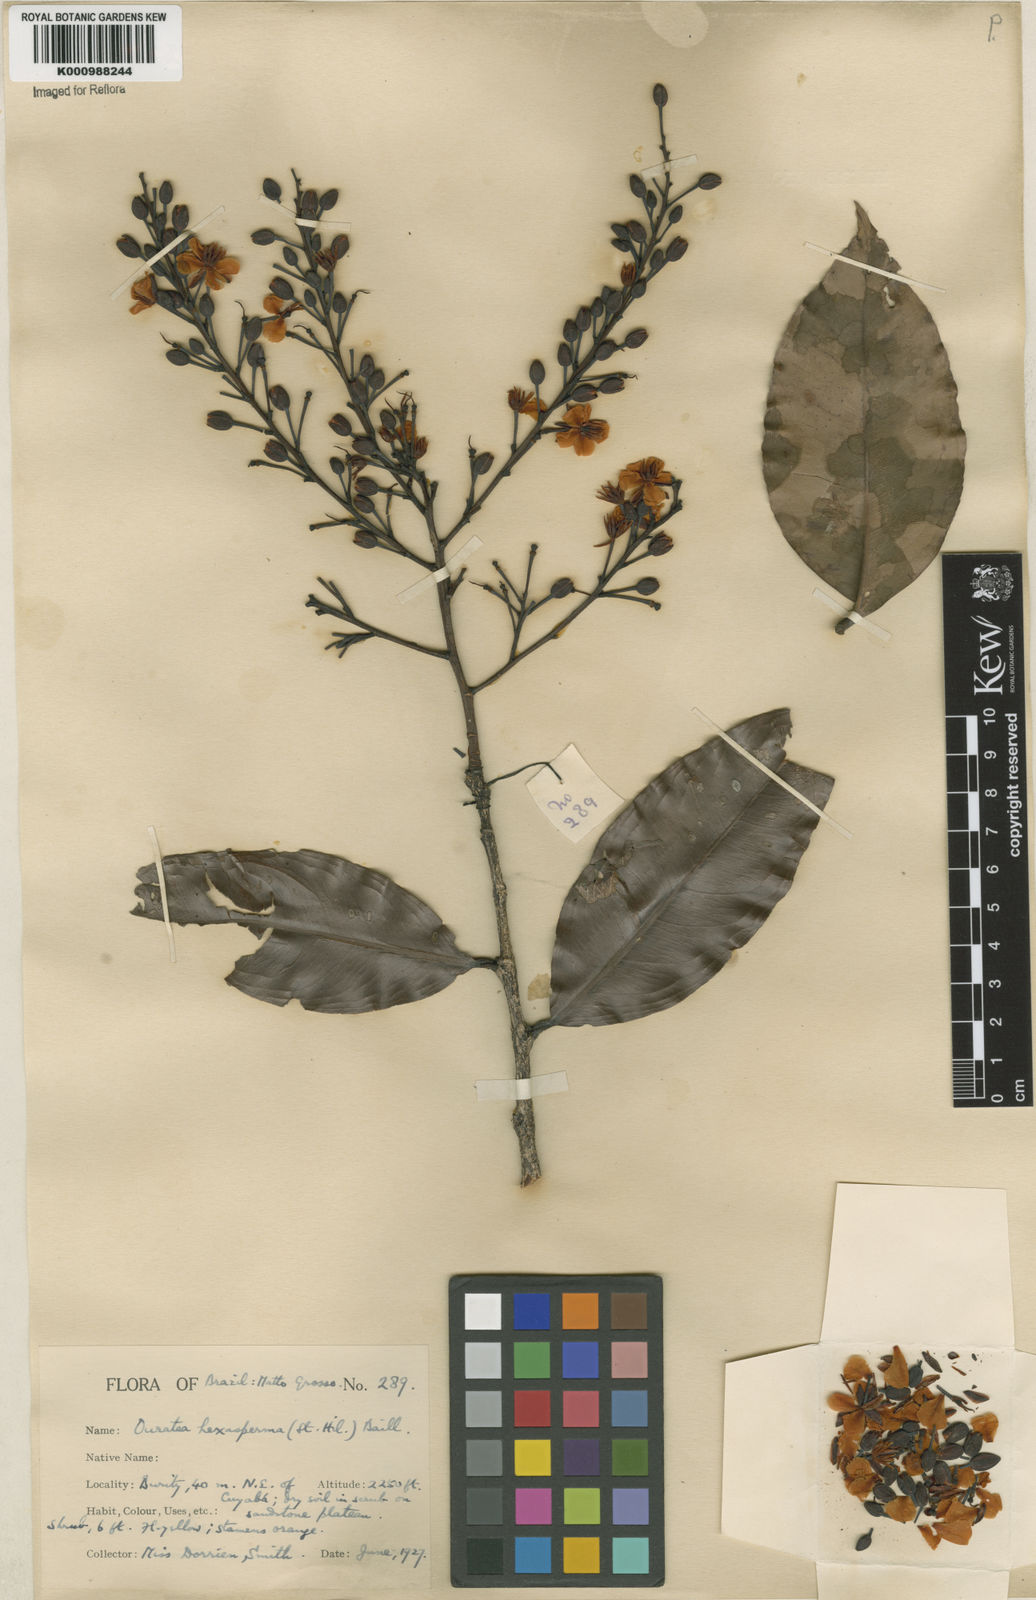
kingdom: Plantae
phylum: Tracheophyta
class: Magnoliopsida
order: Malpighiales
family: Ochnaceae
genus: Ouratea
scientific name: Ouratea hexasperma
